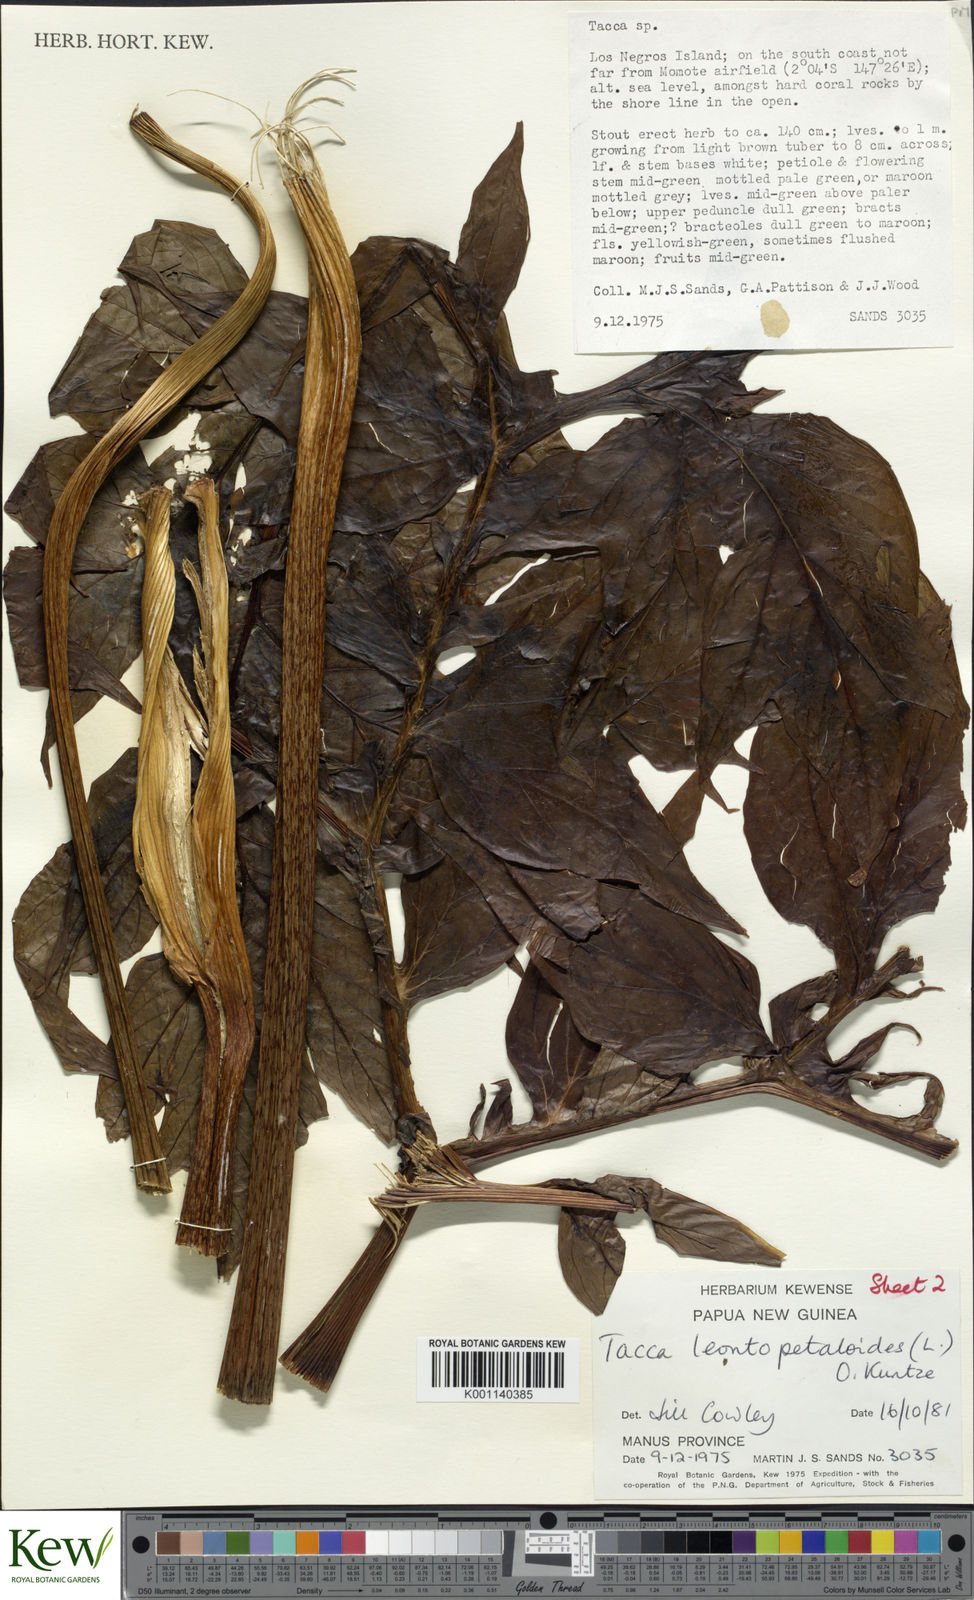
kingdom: Plantae
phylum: Tracheophyta
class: Liliopsida
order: Dioscoreales
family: Dioscoreaceae
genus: Tacca
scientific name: Tacca leontopetaloides
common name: Arrowroot
